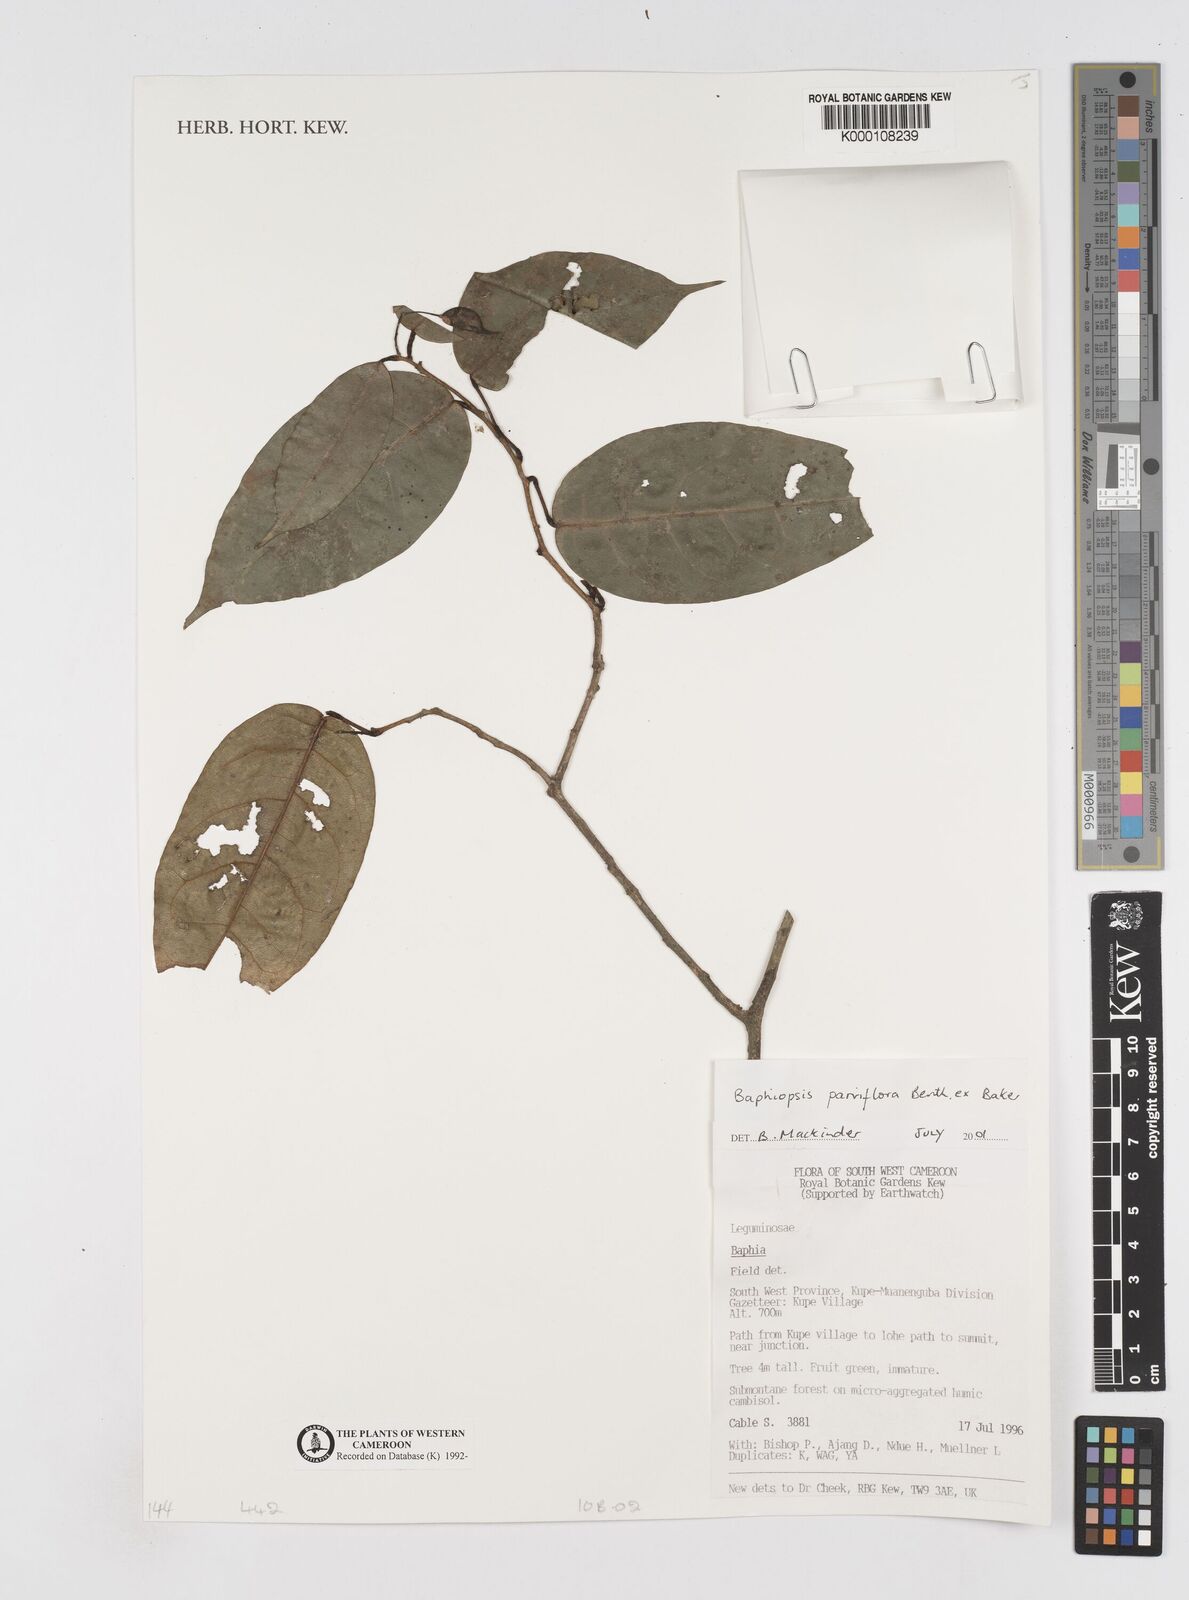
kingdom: Plantae
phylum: Tracheophyta
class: Magnoliopsida
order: Fabales
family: Fabaceae
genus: Baphiopsis
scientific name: Baphiopsis parviflora
